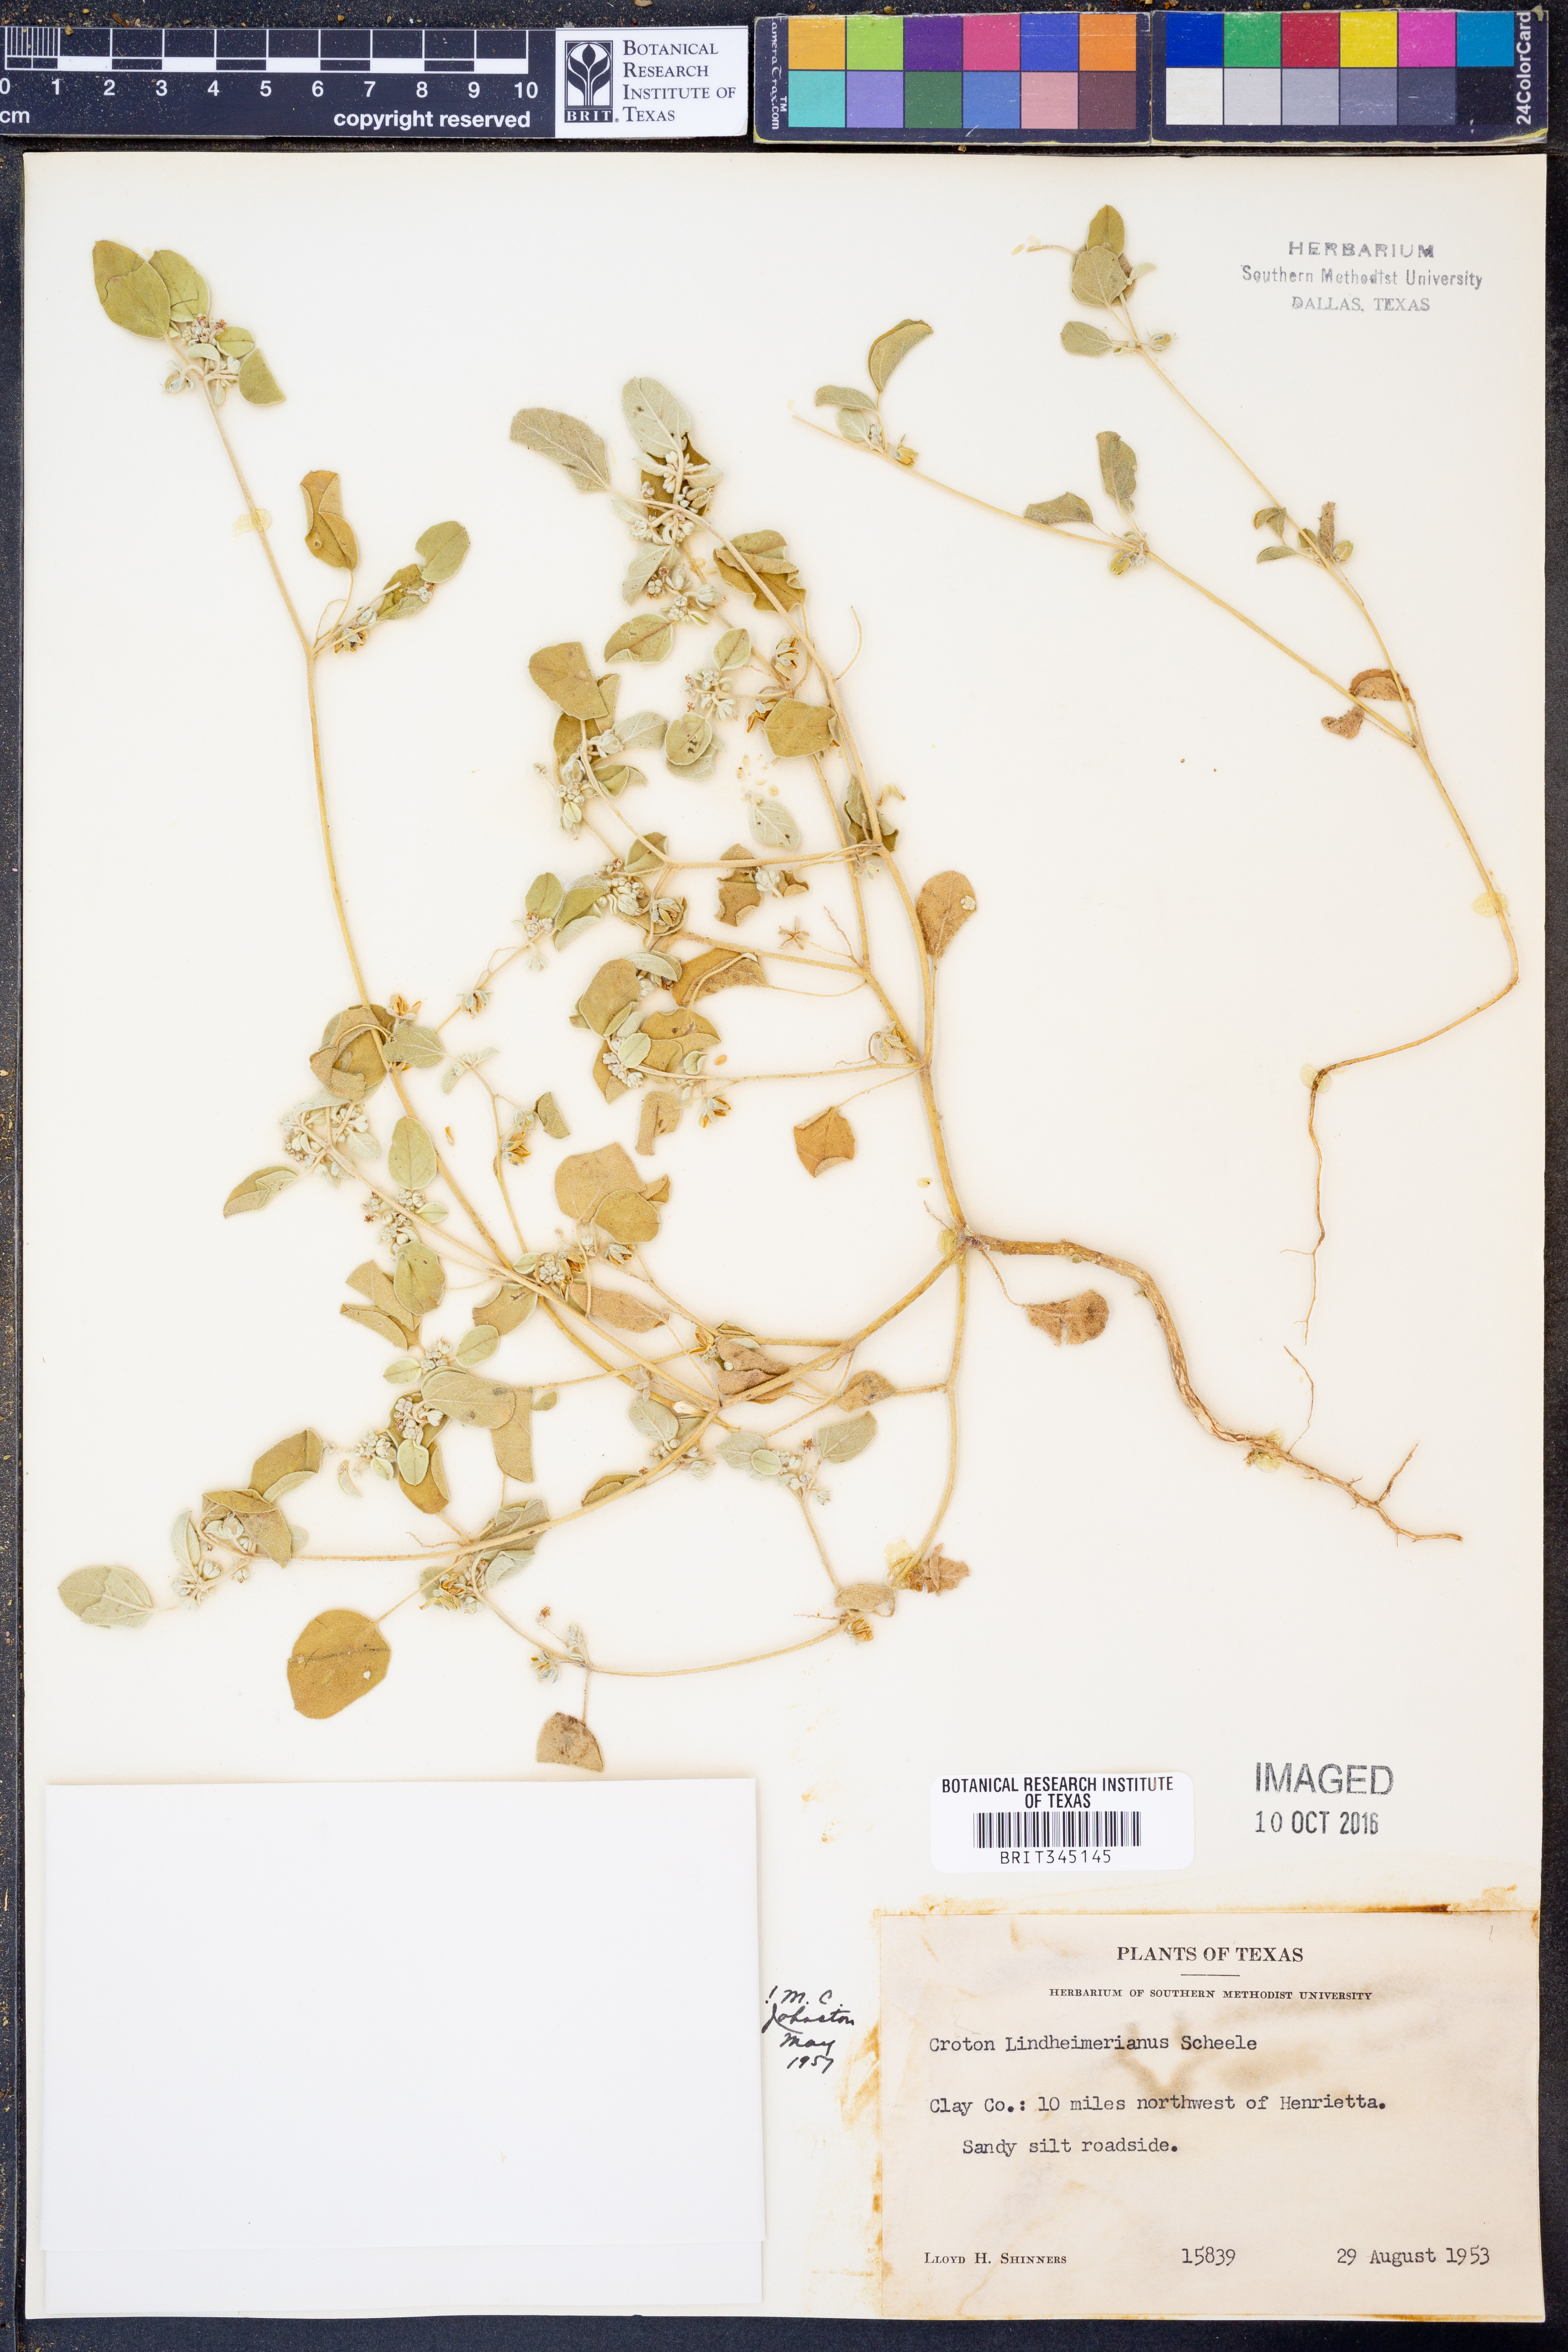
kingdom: Plantae
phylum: Tracheophyta
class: Magnoliopsida
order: Malpighiales
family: Euphorbiaceae
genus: Croton
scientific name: Croton lindheimerianus
